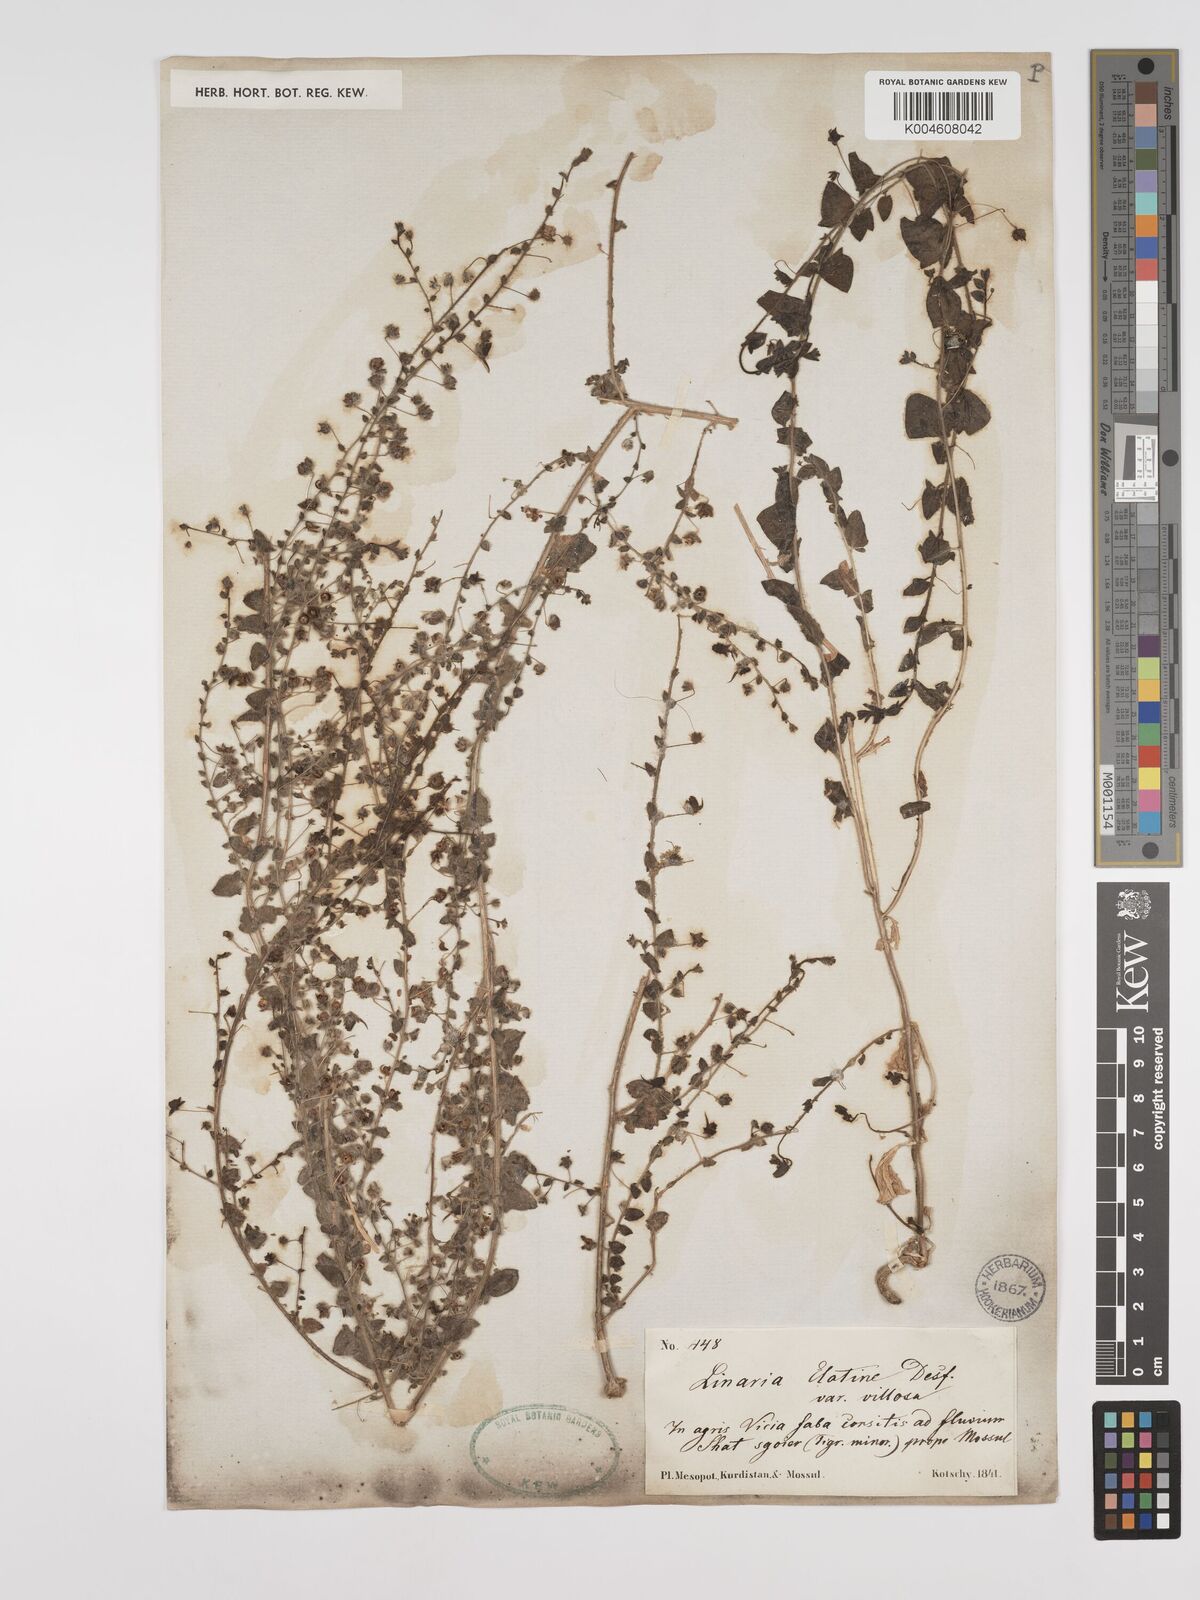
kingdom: Plantae
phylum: Tracheophyta
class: Magnoliopsida
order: Lamiales
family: Plantaginaceae
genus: Kickxia
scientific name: Kickxia elatine
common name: Sharp-leaved fluellen
